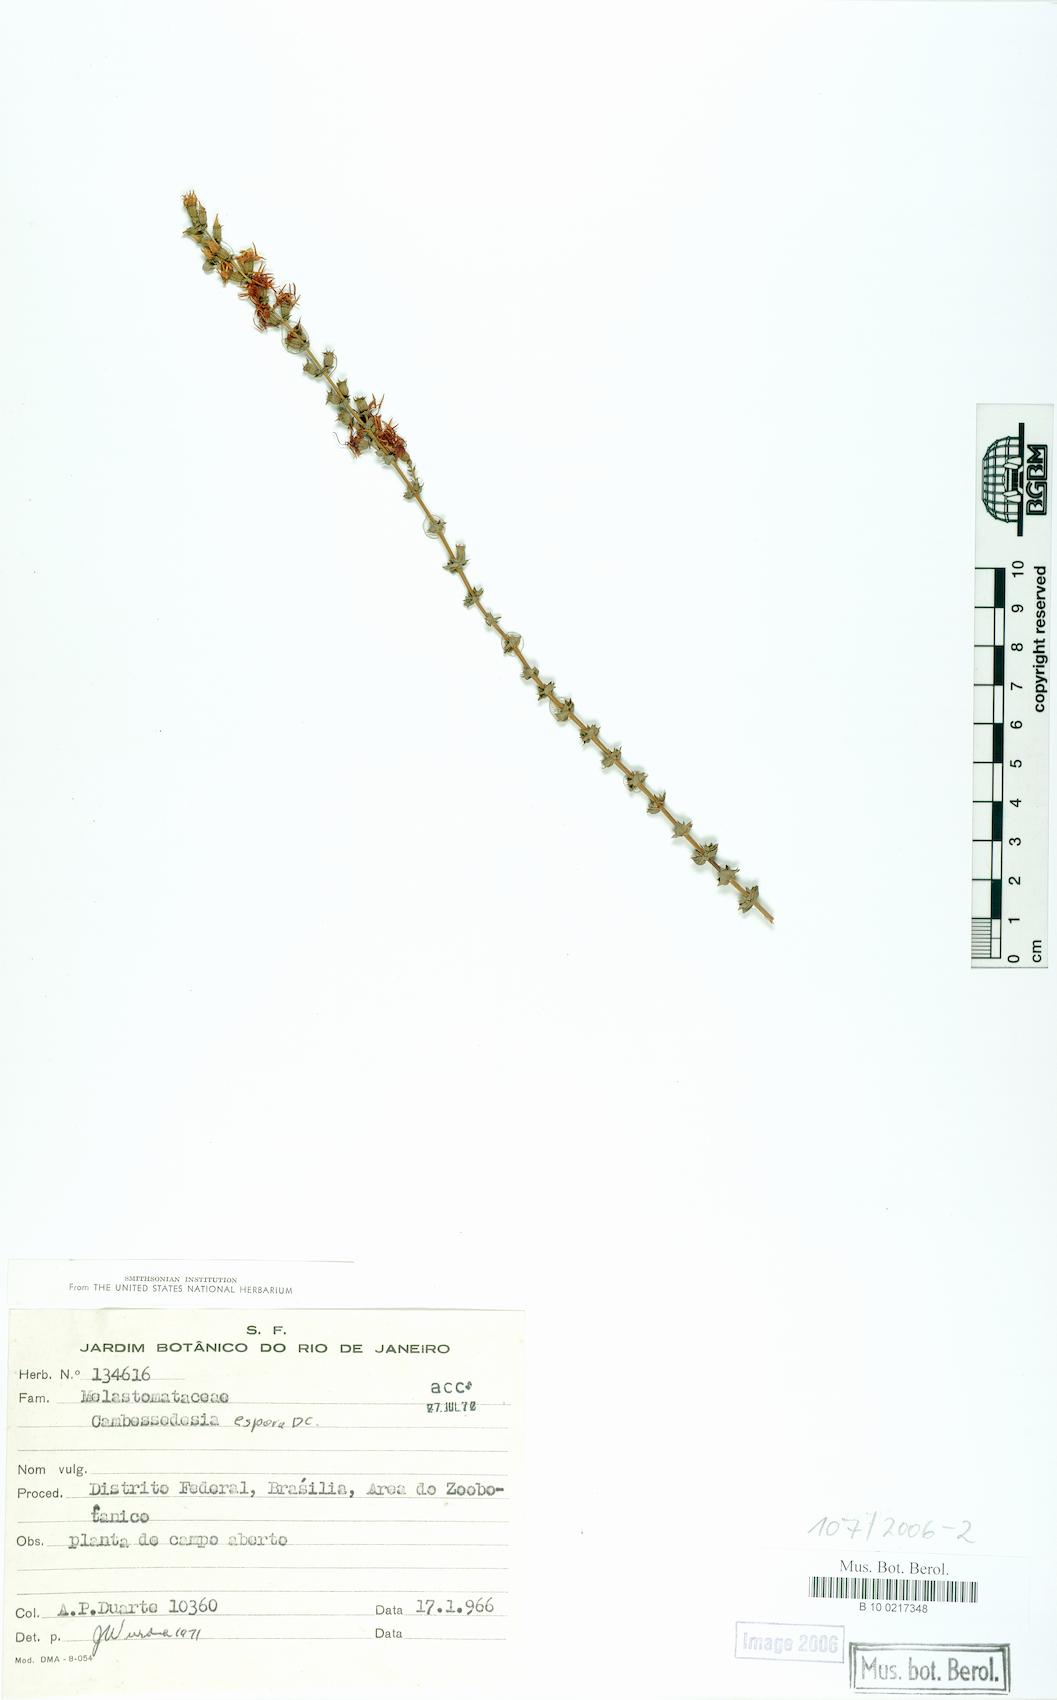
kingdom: Plantae
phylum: Tracheophyta
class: Magnoliopsida
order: Myrtales
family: Melastomataceae
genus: Cambessedesia
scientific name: Cambessedesia espora
